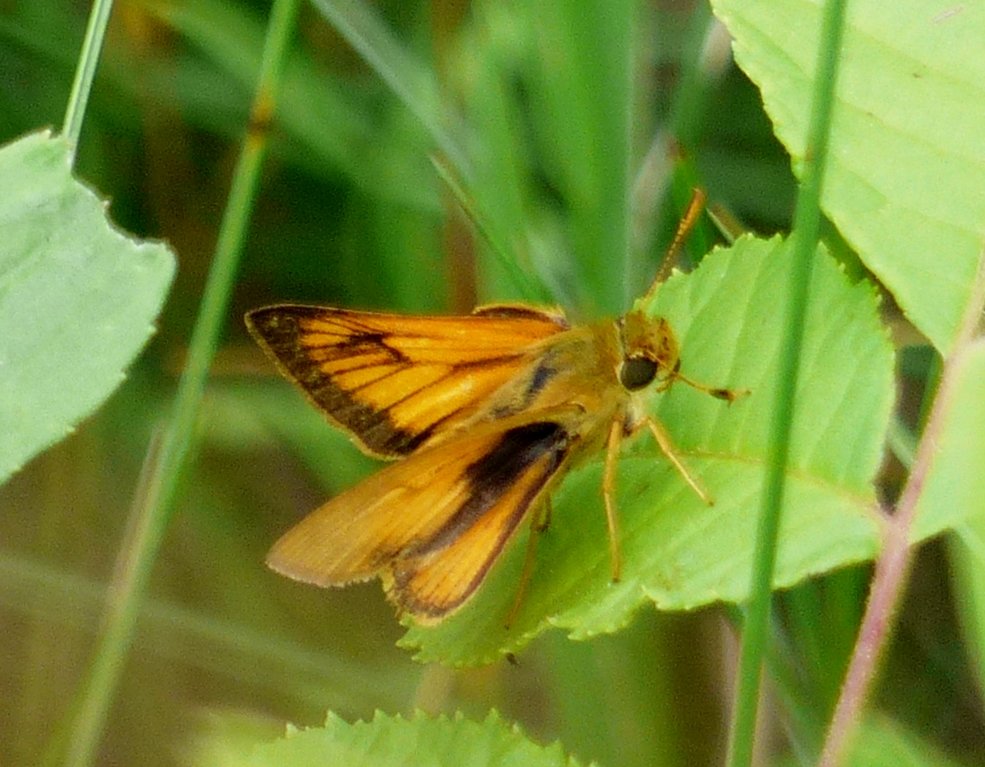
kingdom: Animalia
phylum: Arthropoda
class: Insecta
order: Lepidoptera
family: Hesperiidae
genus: Atrytone
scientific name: Atrytone delaware
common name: Delaware Skipper
